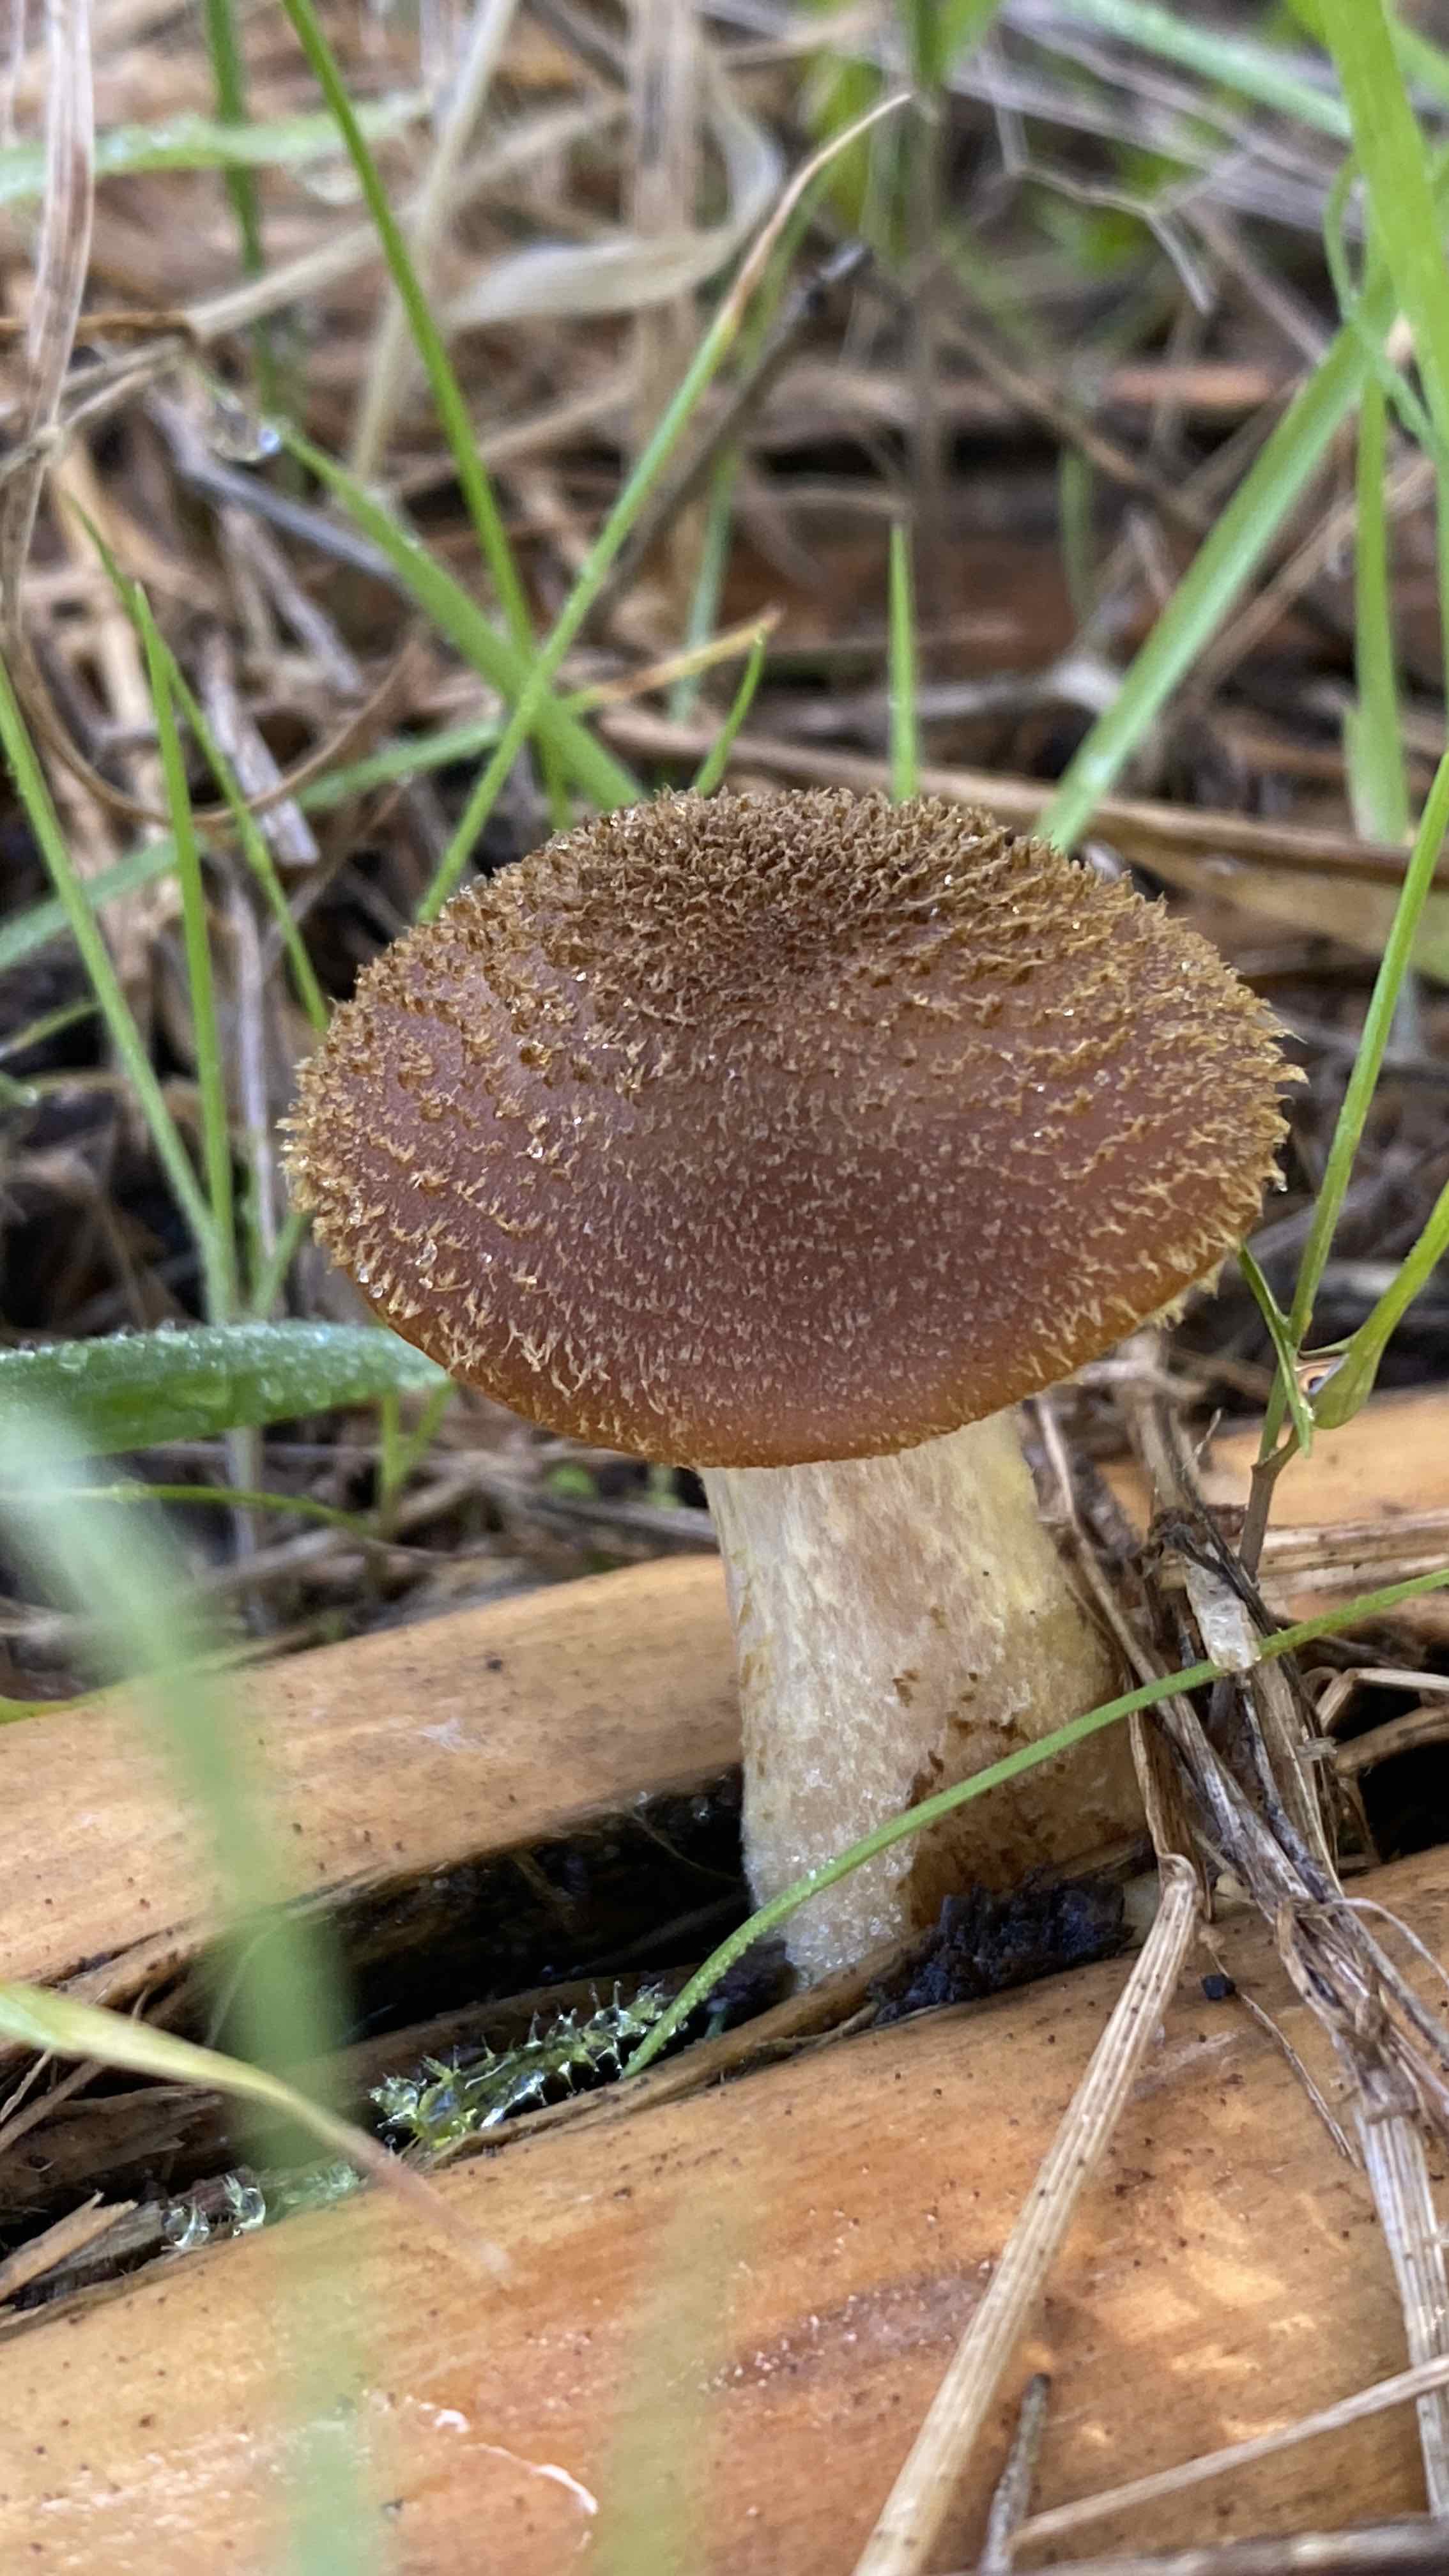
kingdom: Fungi
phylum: Basidiomycota
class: Agaricomycetes
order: Agaricales
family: Physalacriaceae
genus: Armillaria
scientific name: Armillaria
